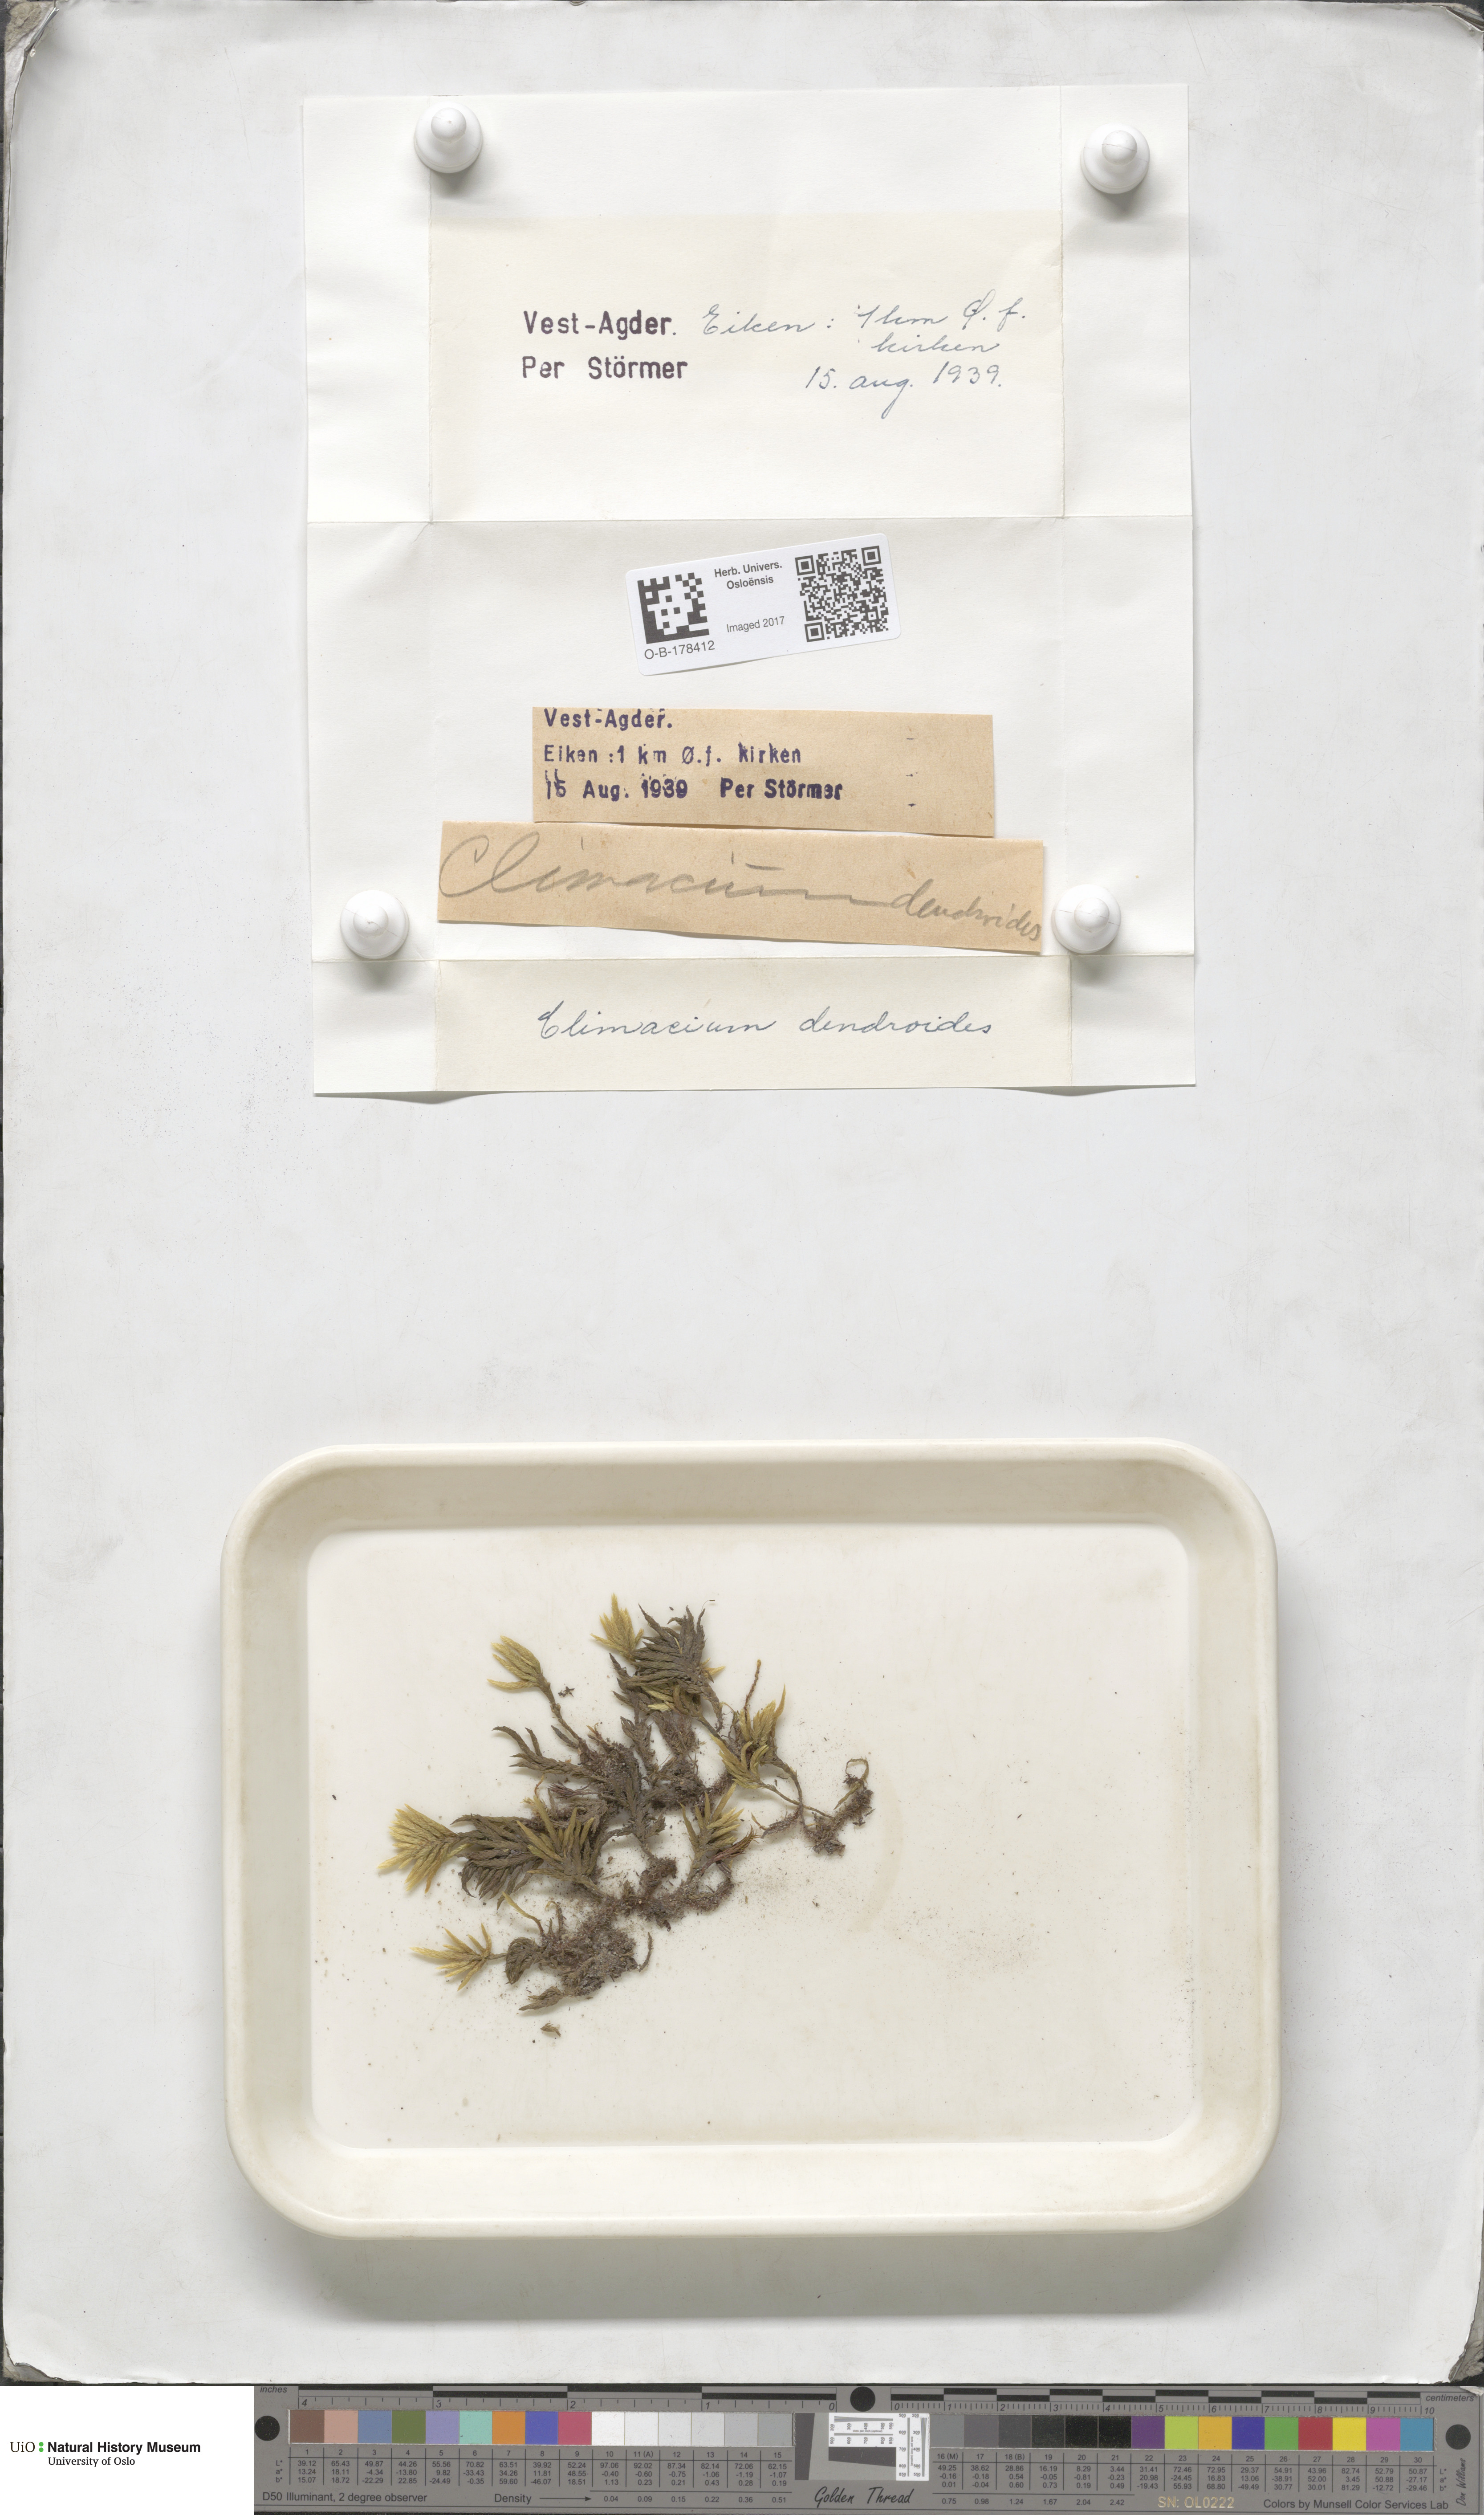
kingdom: Plantae
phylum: Bryophyta
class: Bryopsida
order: Hypnales
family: Climaciaceae
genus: Climacium
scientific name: Climacium dendroides
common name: Northern tree moss
